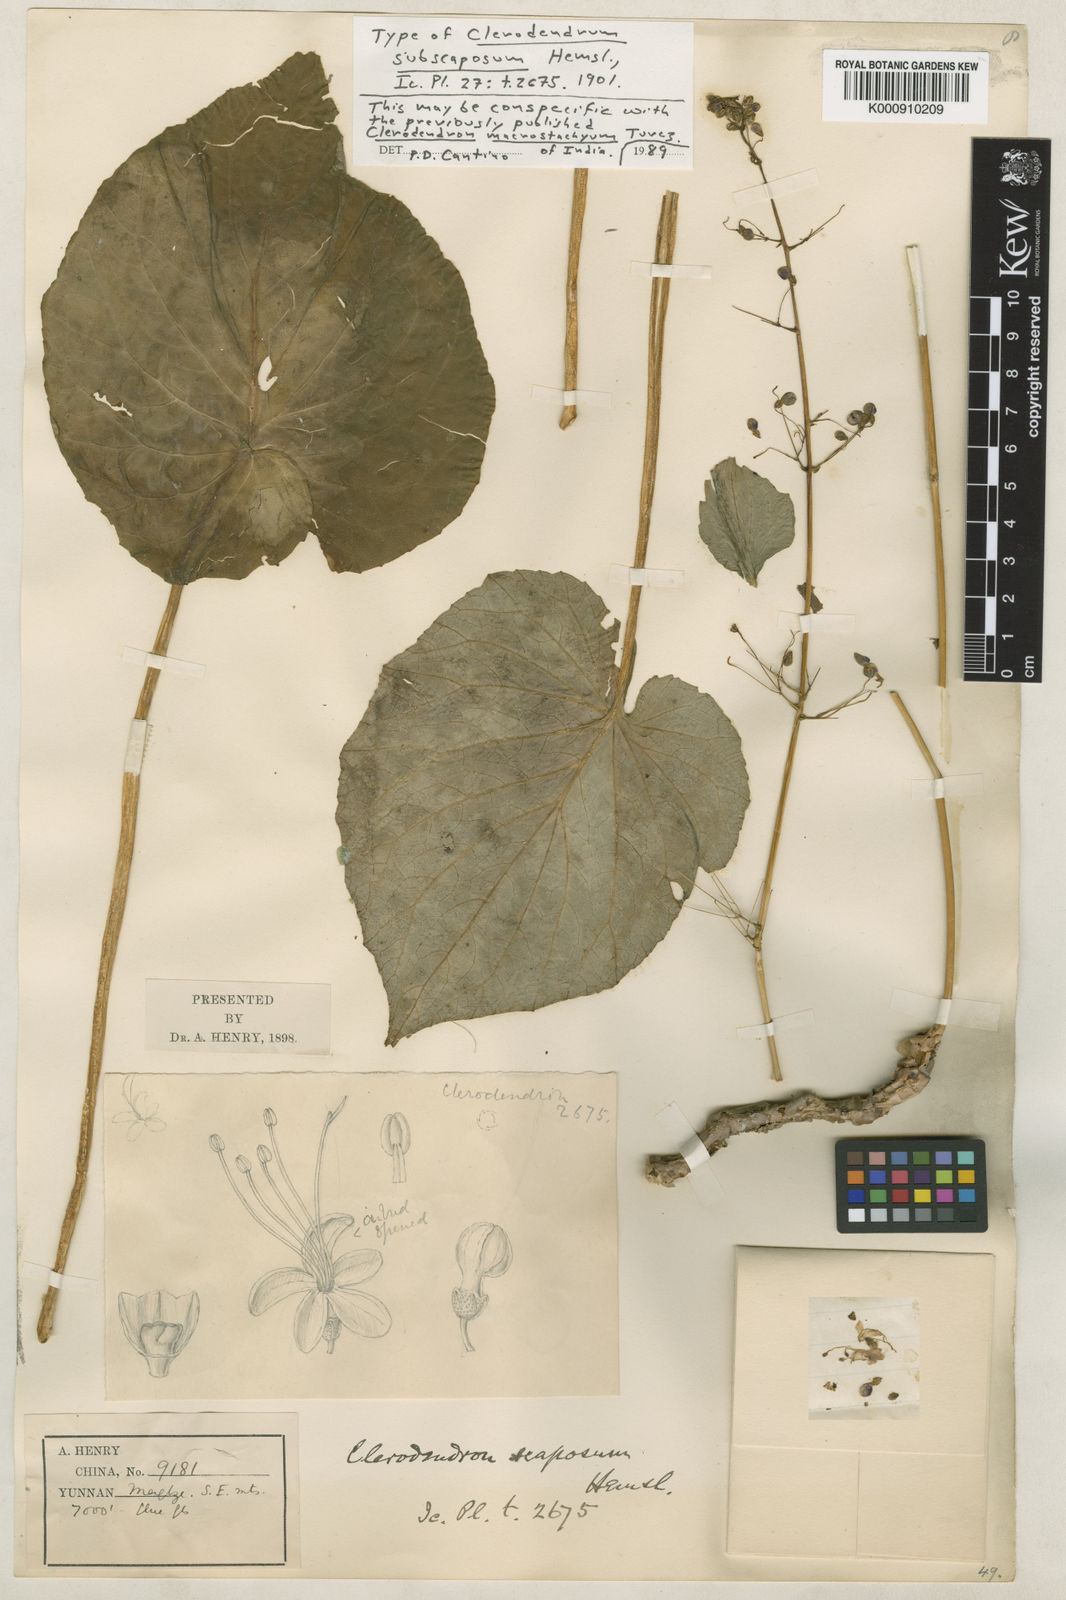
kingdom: Plantae
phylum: Tracheophyta
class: Magnoliopsida
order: Lamiales
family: Lamiaceae
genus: Rotheca
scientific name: Rotheca macrostachya
